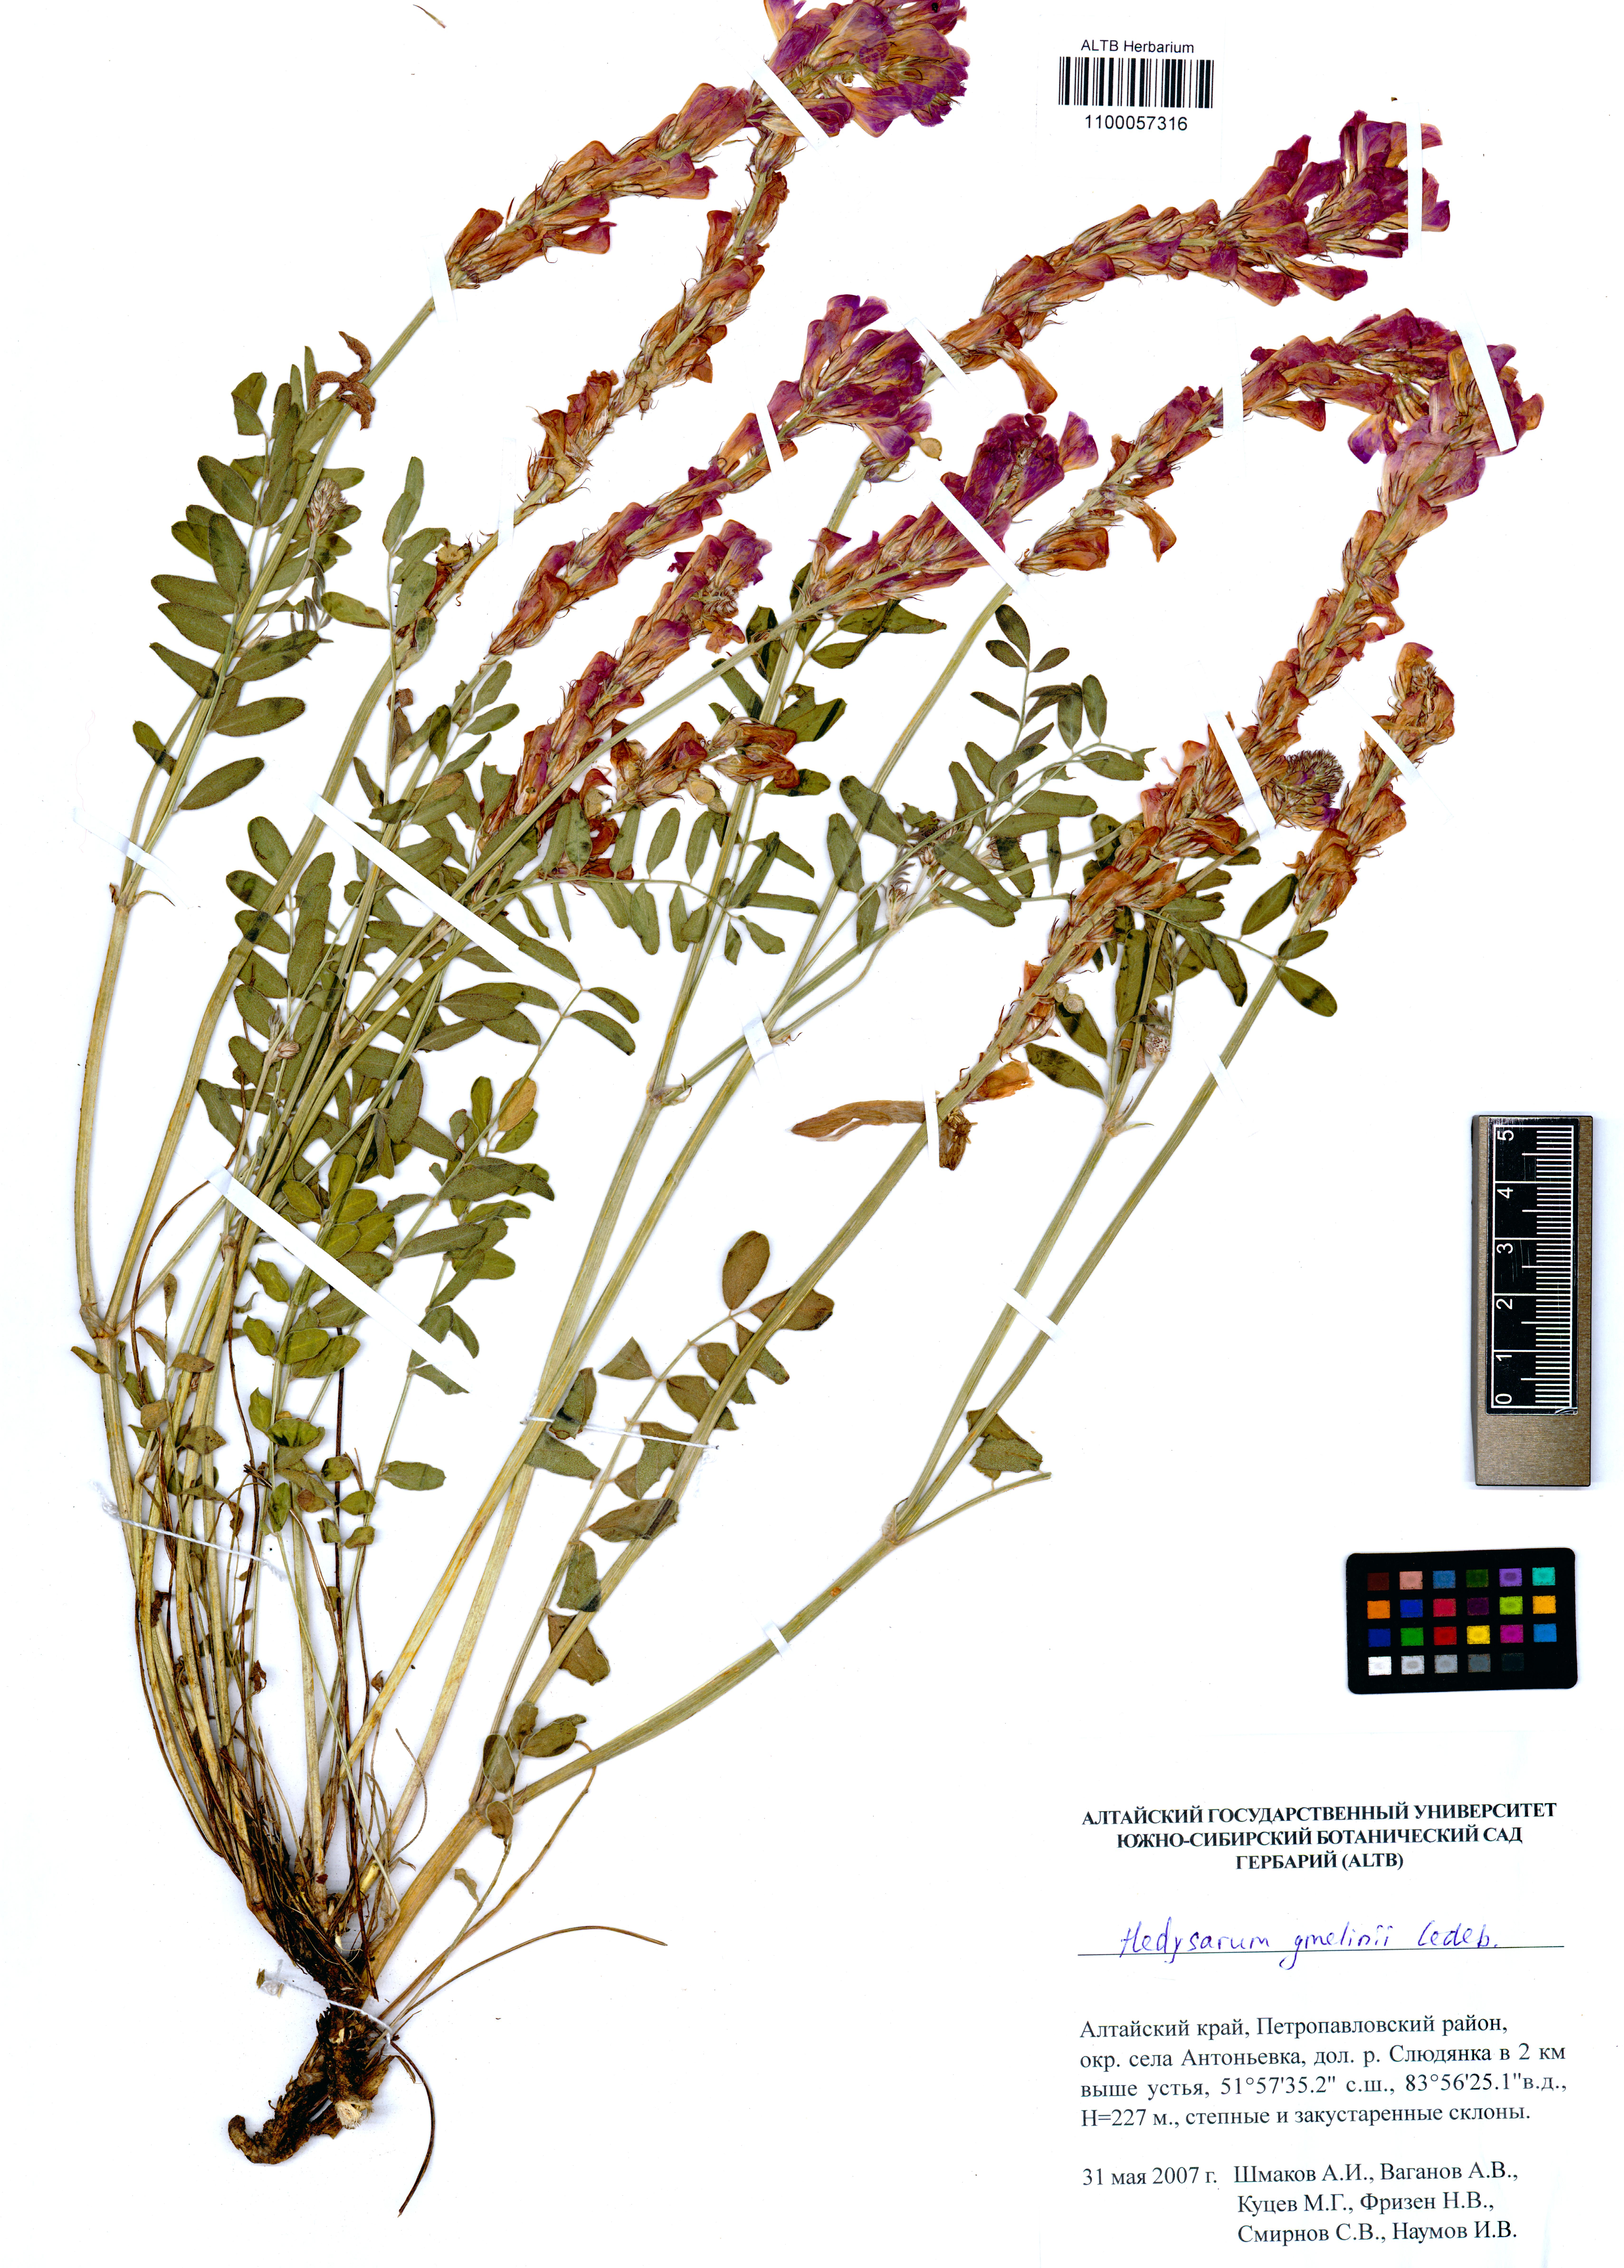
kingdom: Plantae
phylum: Tracheophyta
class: Magnoliopsida
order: Fabales
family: Fabaceae
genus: Hedysarum
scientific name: Hedysarum gmelinii
